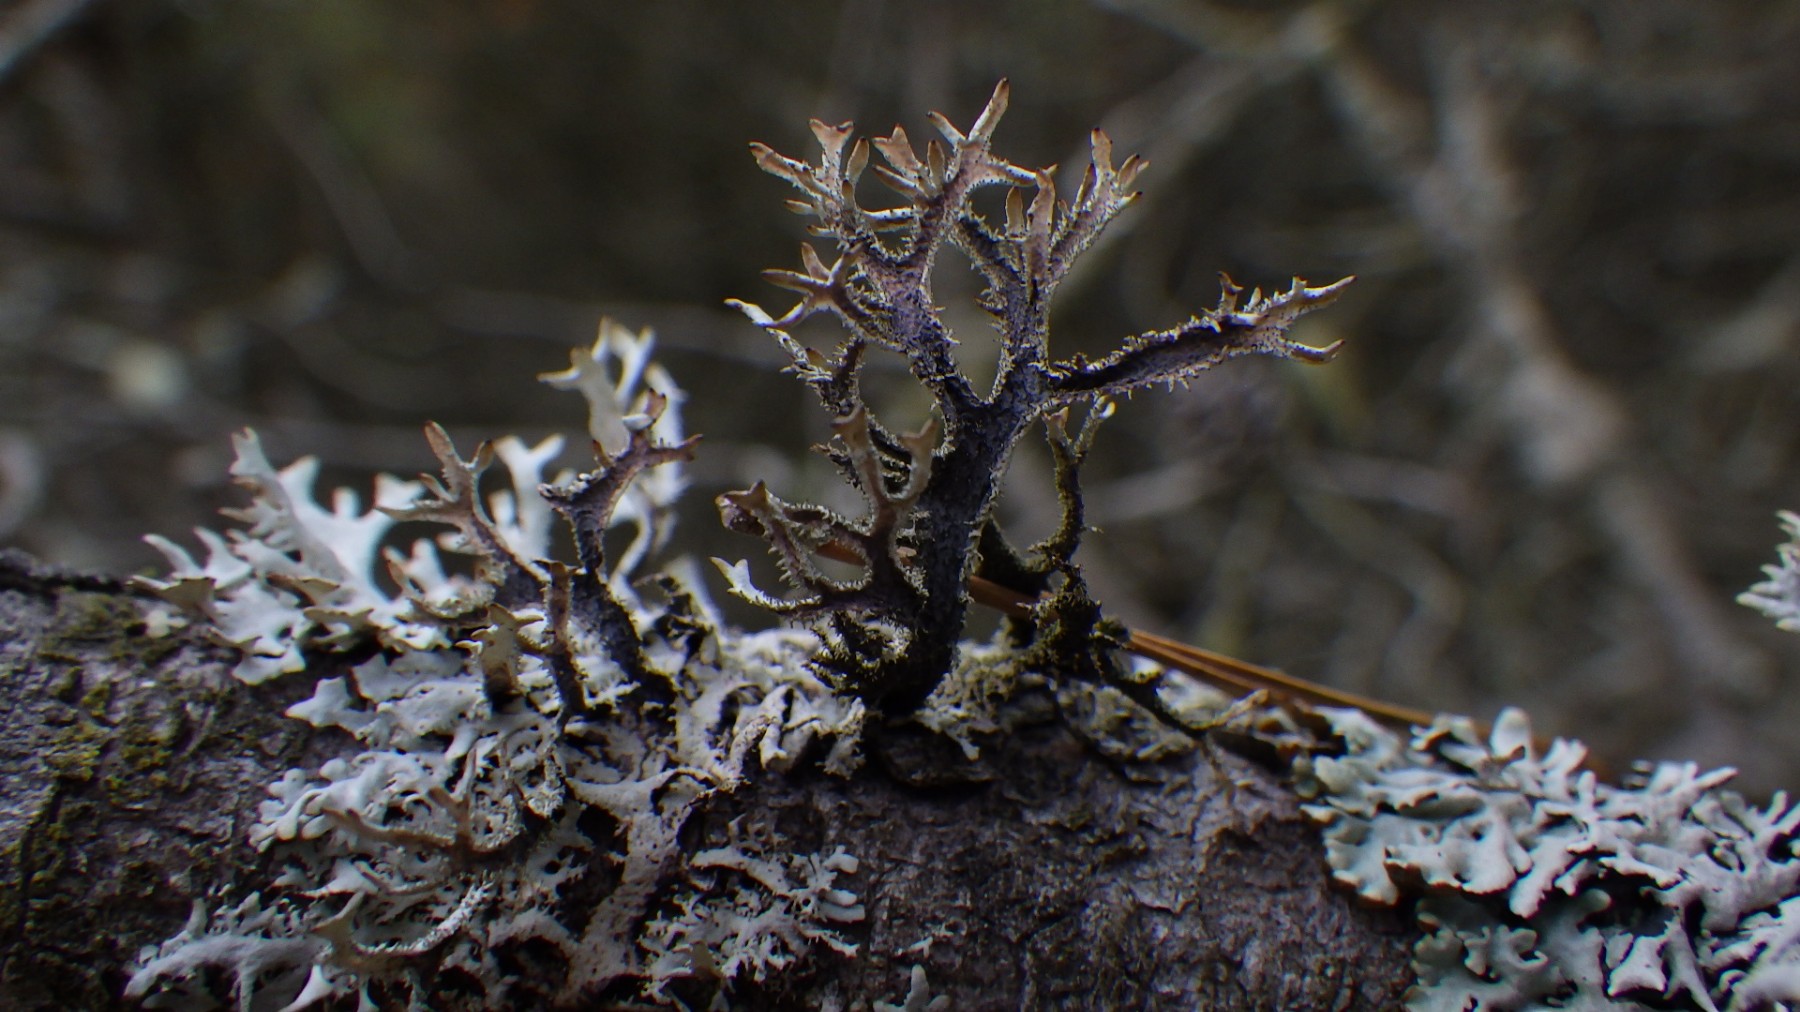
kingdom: Fungi
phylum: Ascomycota
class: Lecanoromycetes
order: Lecanorales
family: Parmeliaceae
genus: Pseudevernia
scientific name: Pseudevernia furfuracea
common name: grå fyrrelav
